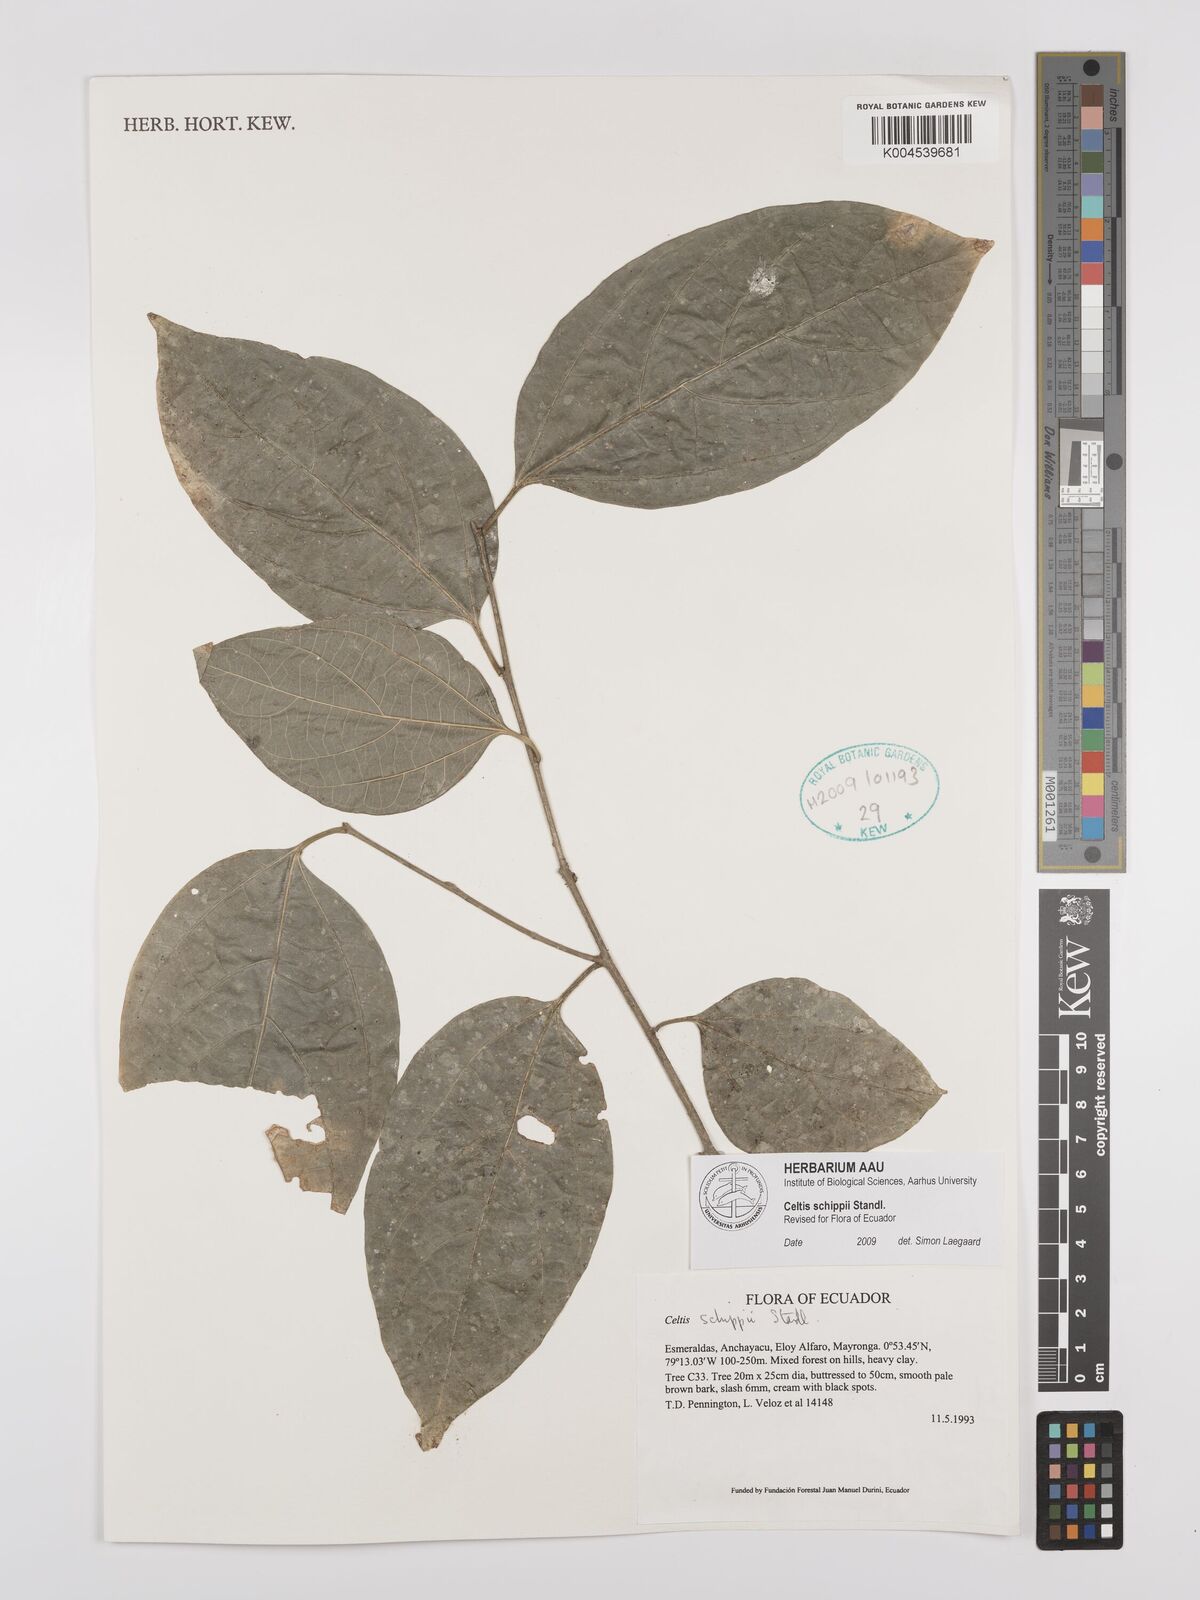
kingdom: Plantae
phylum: Tracheophyta
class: Magnoliopsida
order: Rosales
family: Cannabaceae
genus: Celtis
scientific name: Celtis schippii
